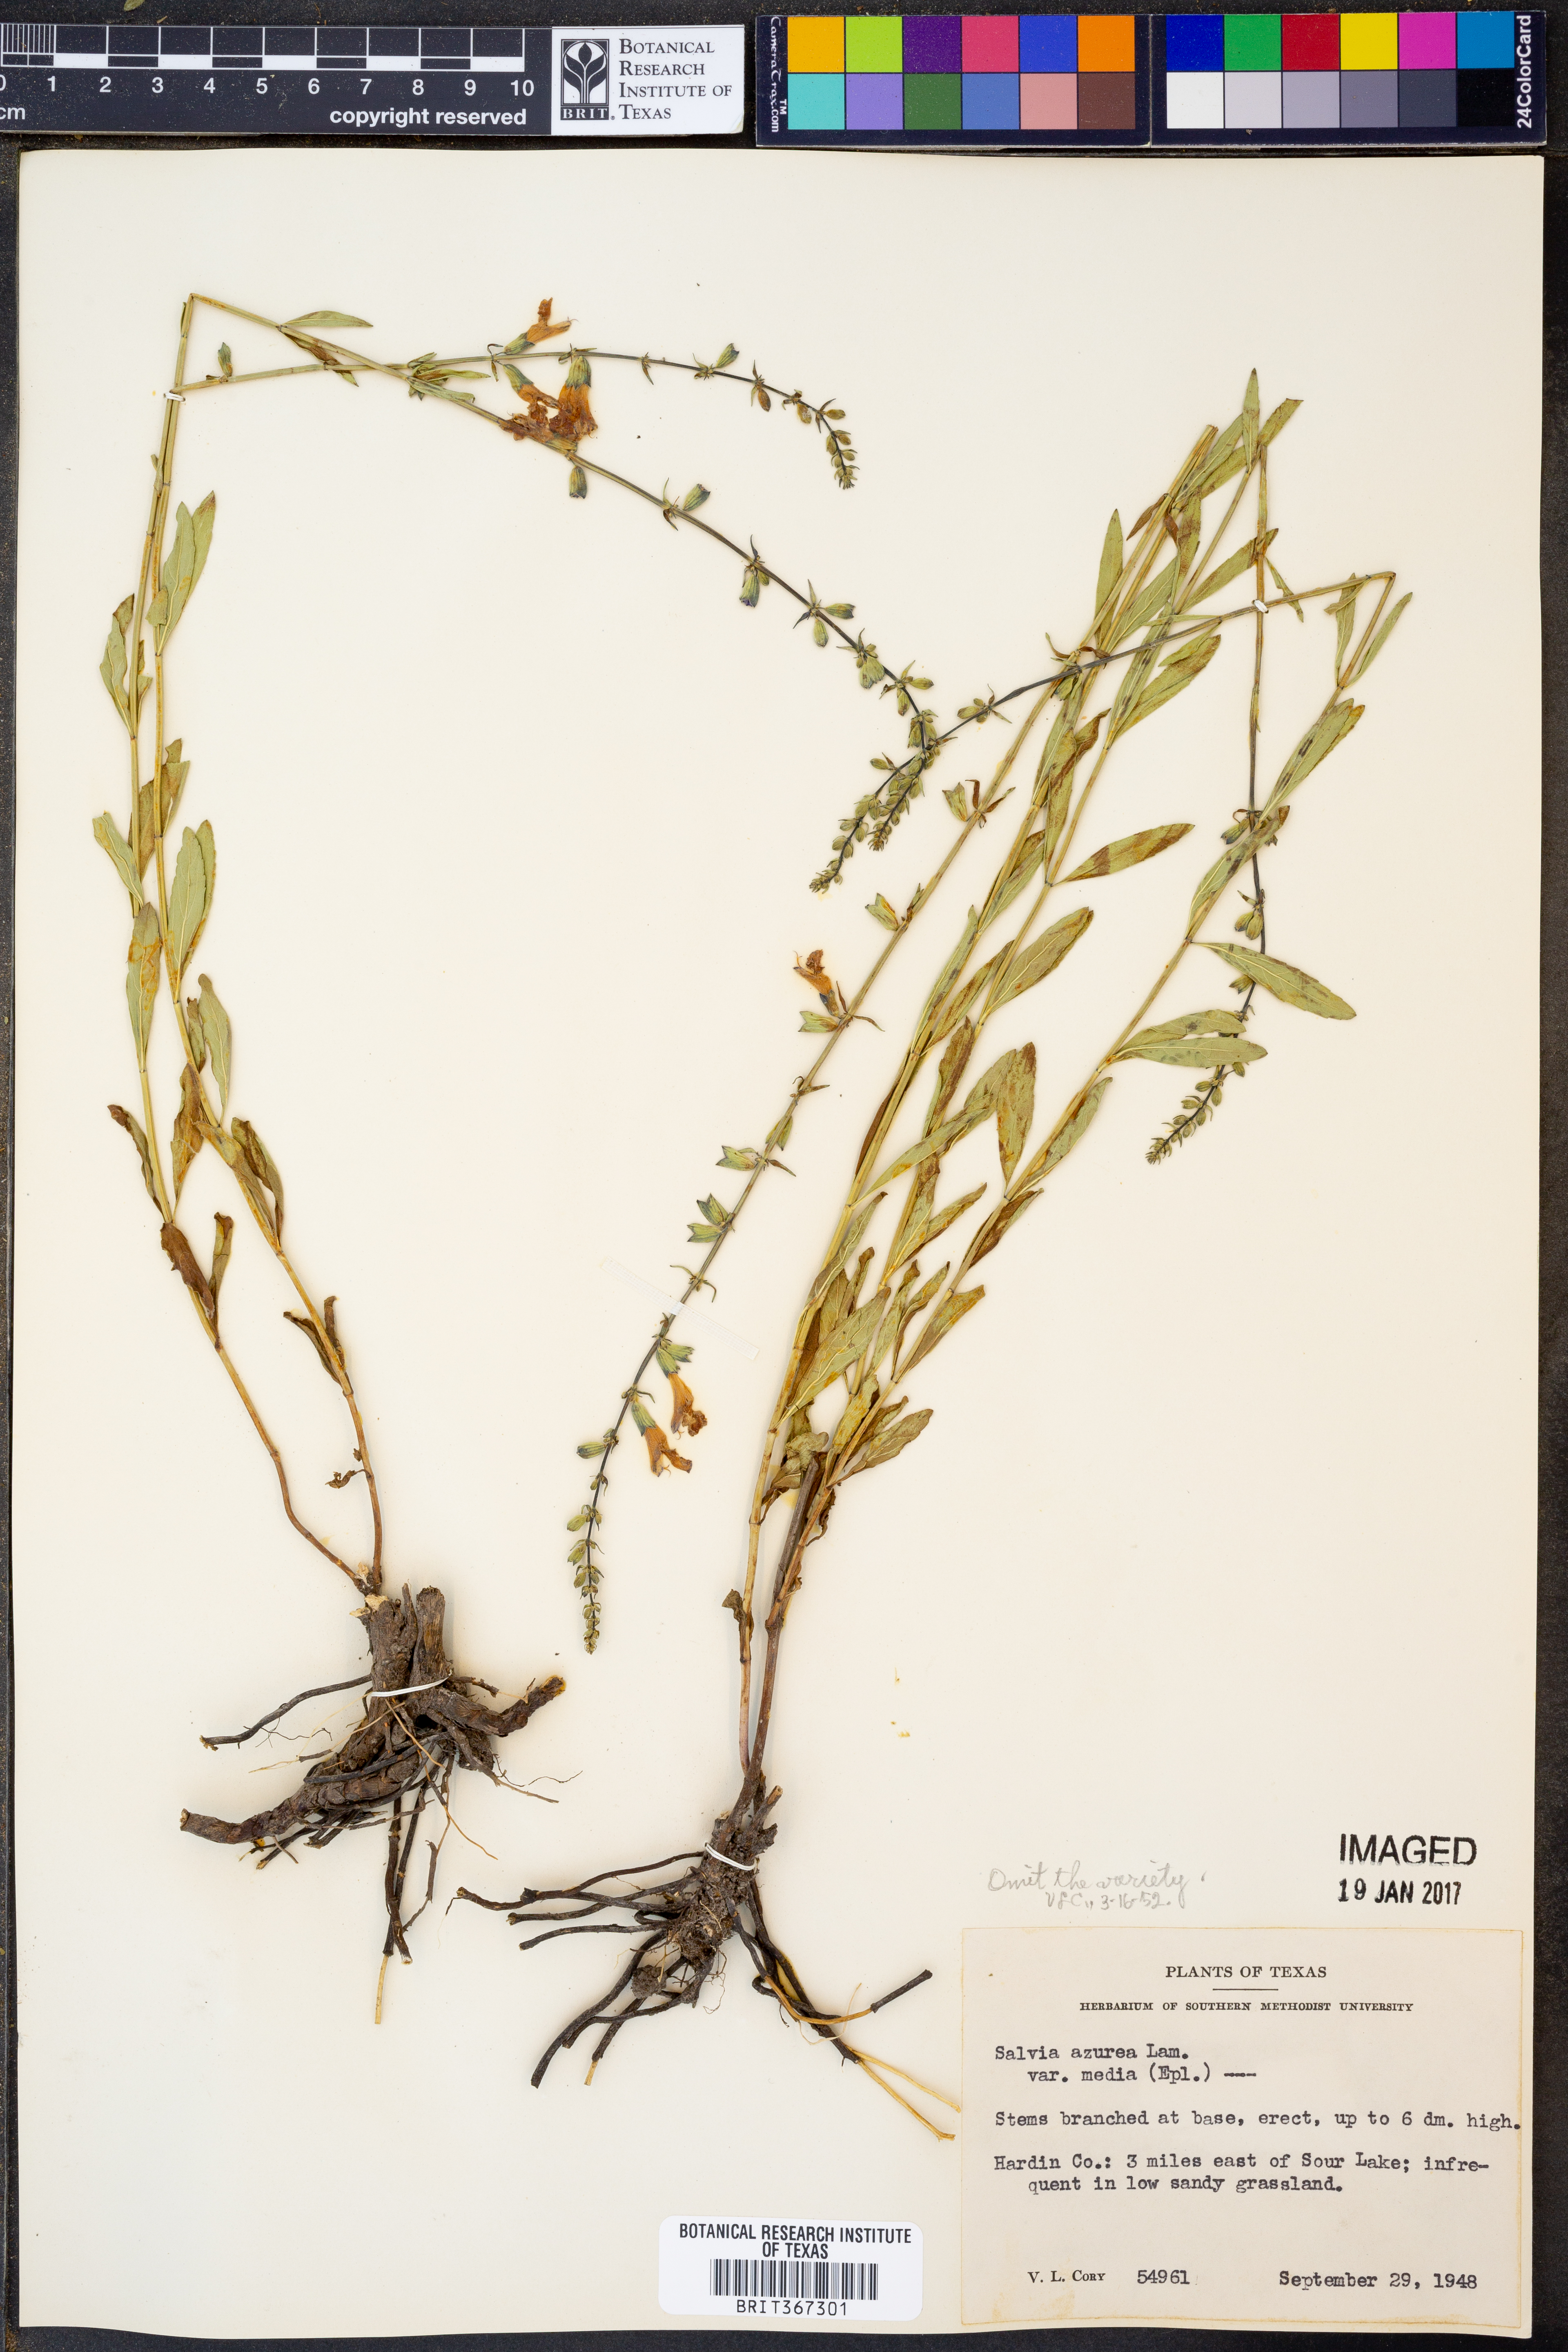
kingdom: Plantae
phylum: Tracheophyta
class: Magnoliopsida
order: Lamiales
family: Lamiaceae
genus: Salvia
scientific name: Salvia azurea
